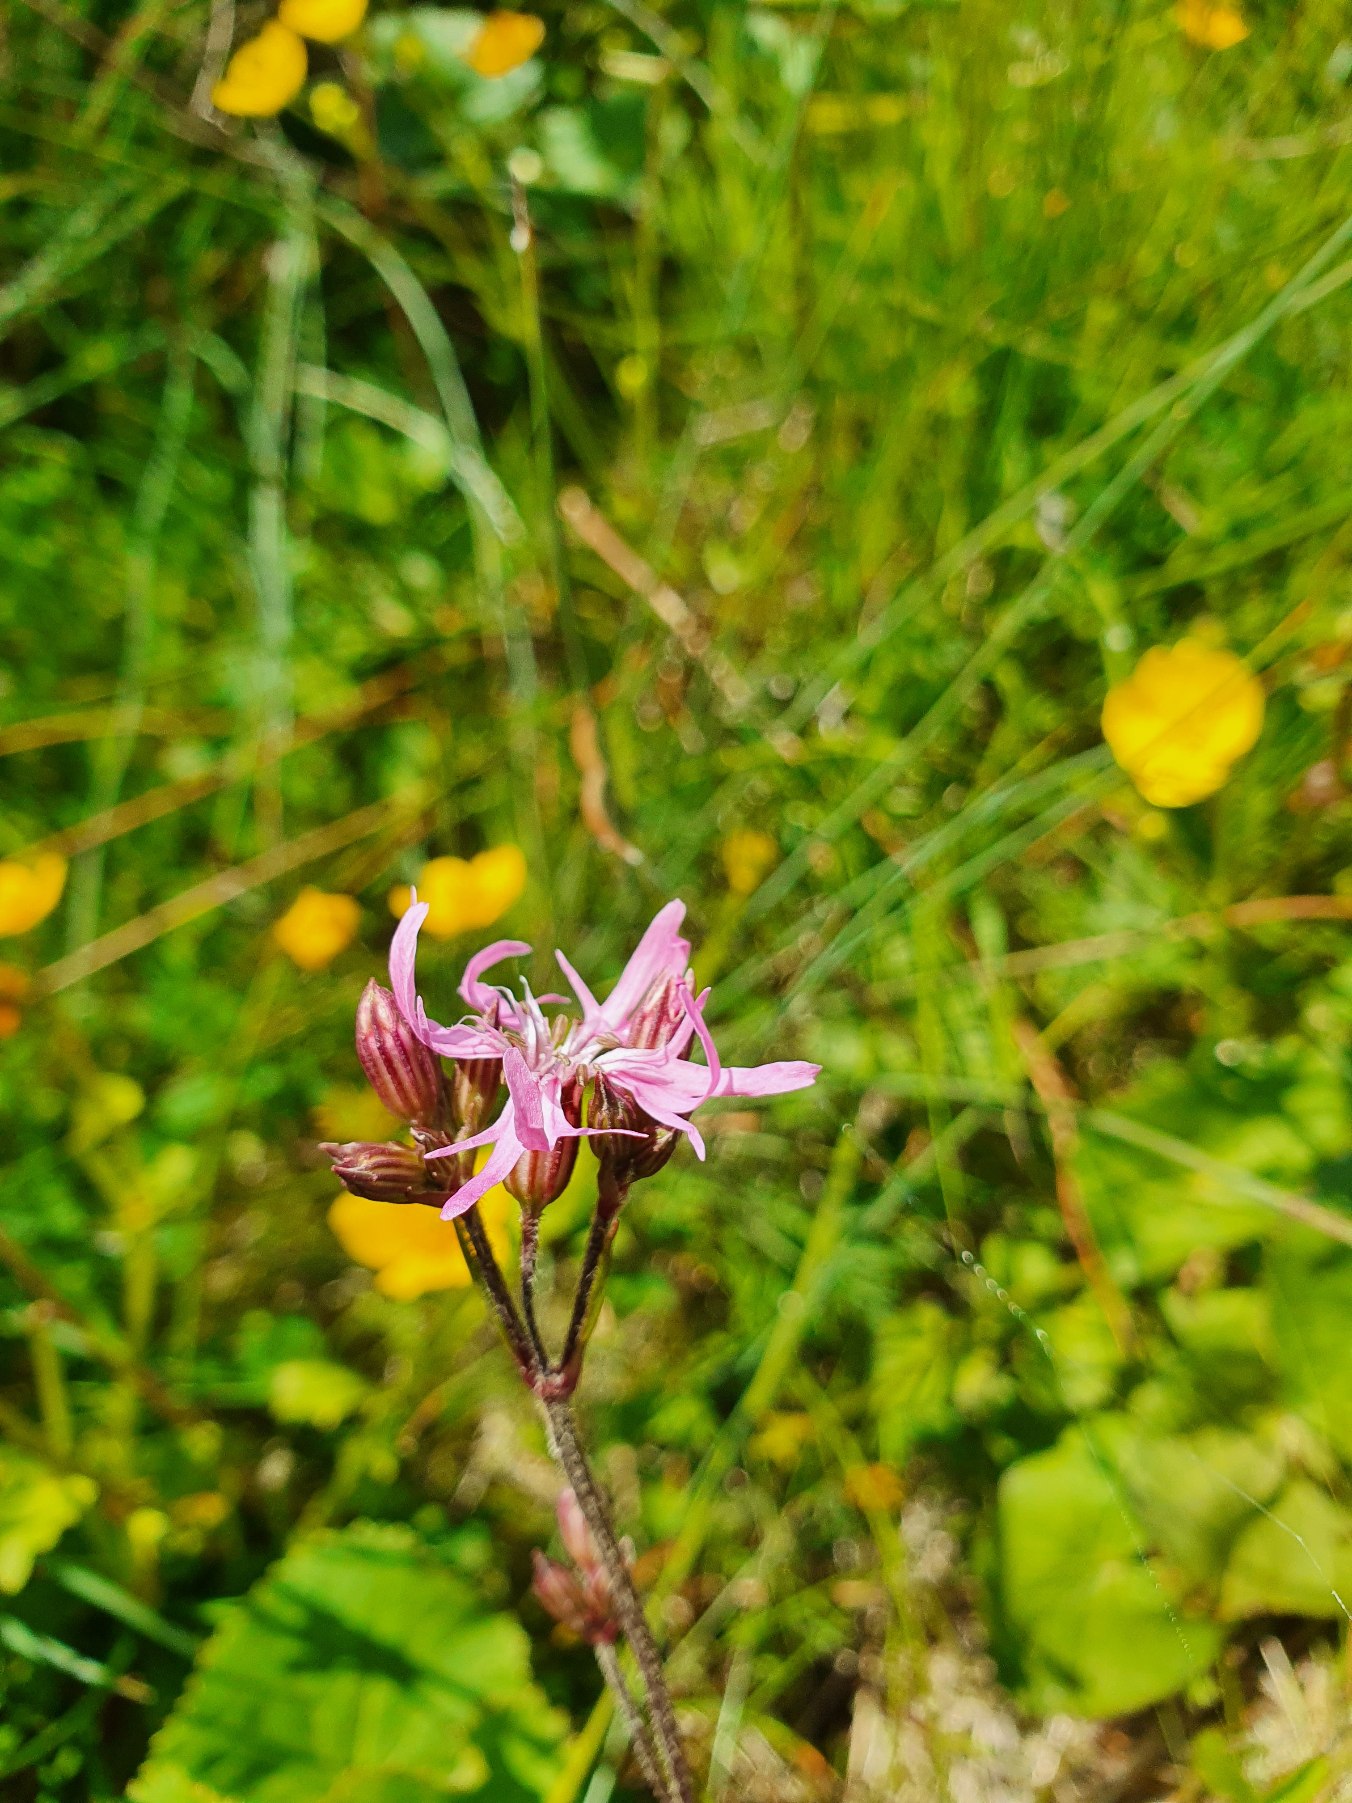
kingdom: Plantae
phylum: Tracheophyta
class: Magnoliopsida
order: Caryophyllales
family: Caryophyllaceae
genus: Silene
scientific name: Silene flos-cuculi
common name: Trævlekrone
